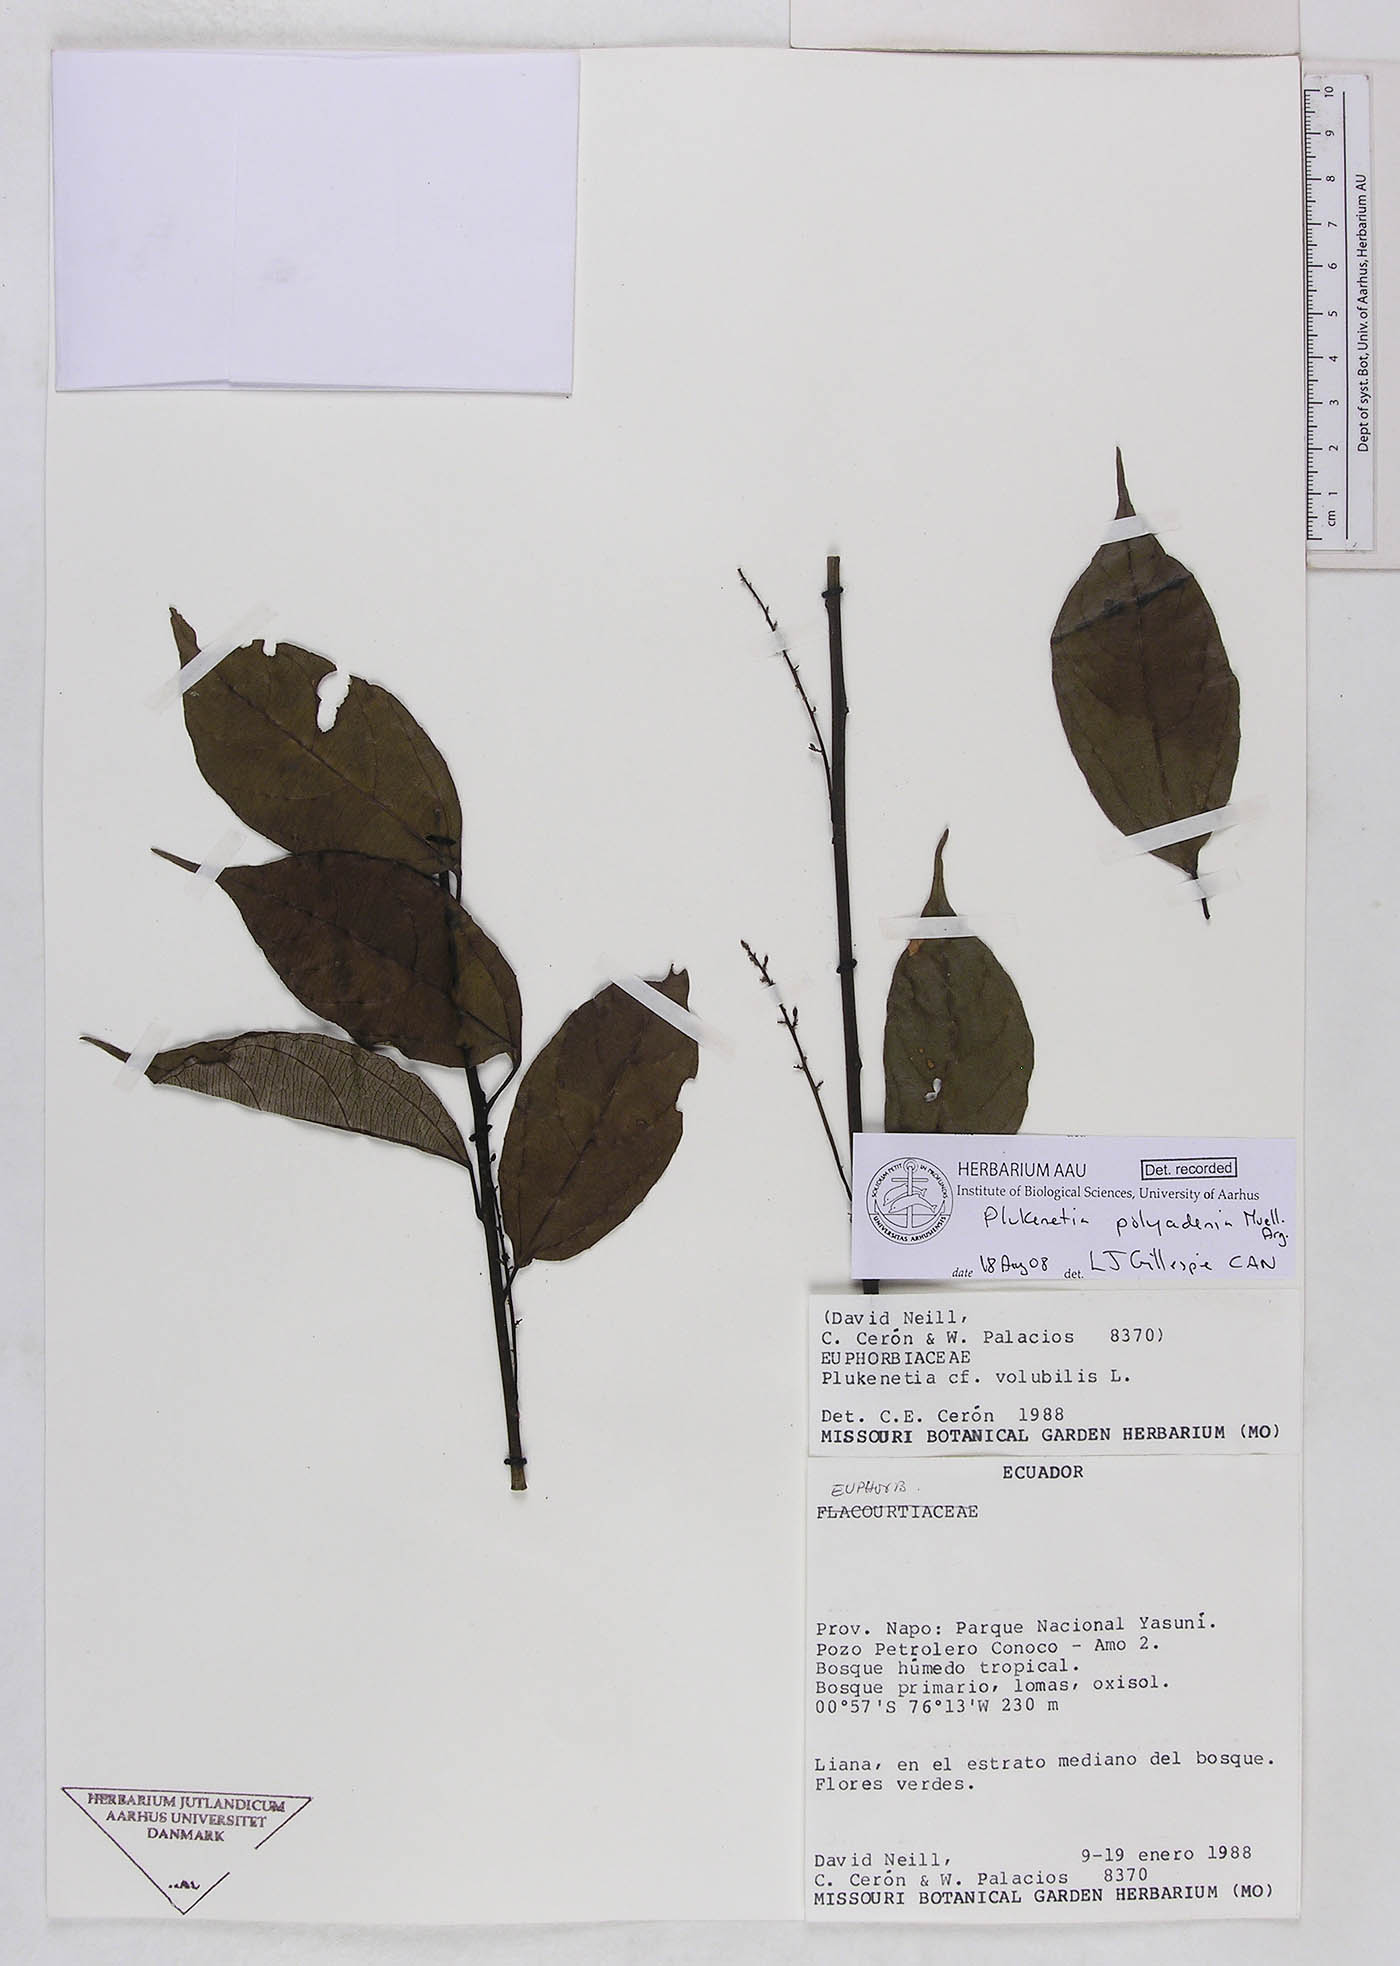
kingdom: Plantae
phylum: Tracheophyta
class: Magnoliopsida
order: Malpighiales
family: Euphorbiaceae
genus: Plukenetia
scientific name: Plukenetia polyadenia
